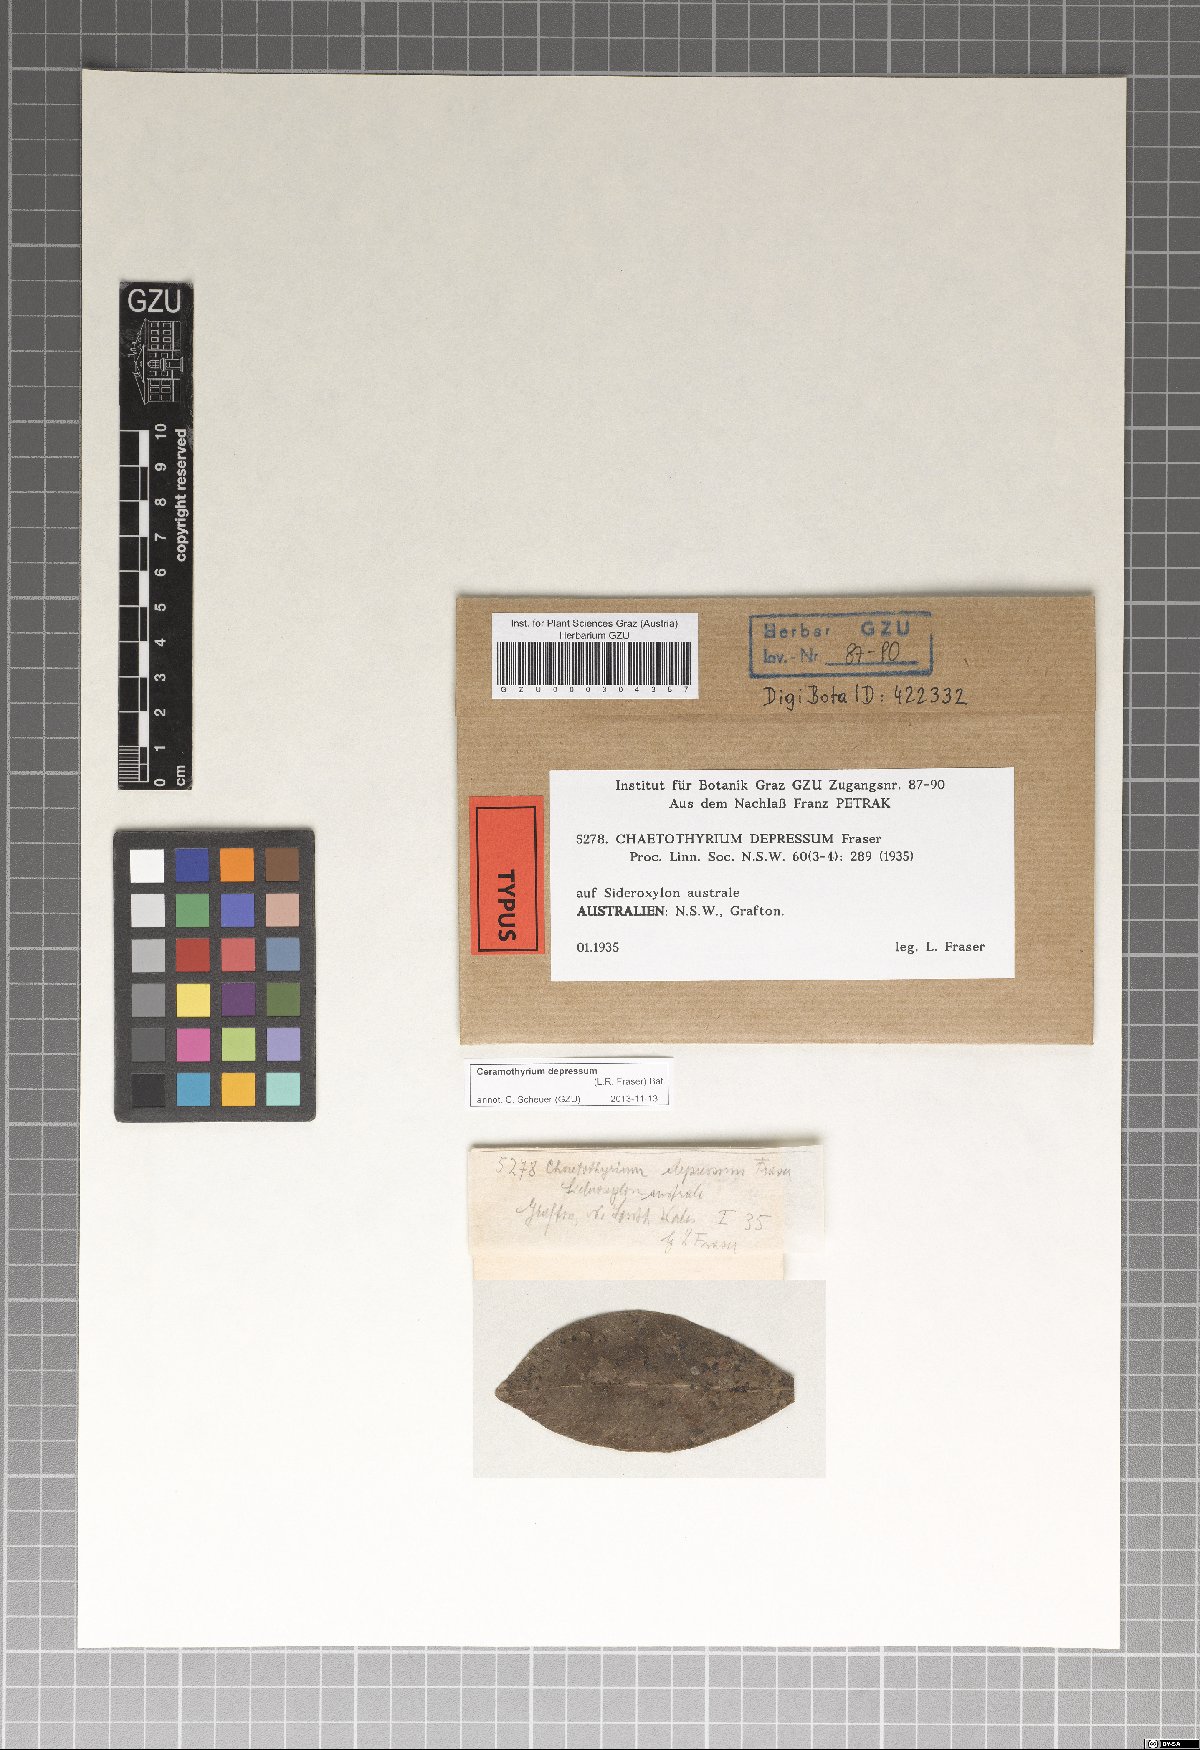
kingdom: Fungi
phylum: Ascomycota
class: Eurotiomycetes
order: Chaetothyriales
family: Chaetothyriaceae
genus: Ceramothyrium
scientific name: Ceramothyrium depressum
